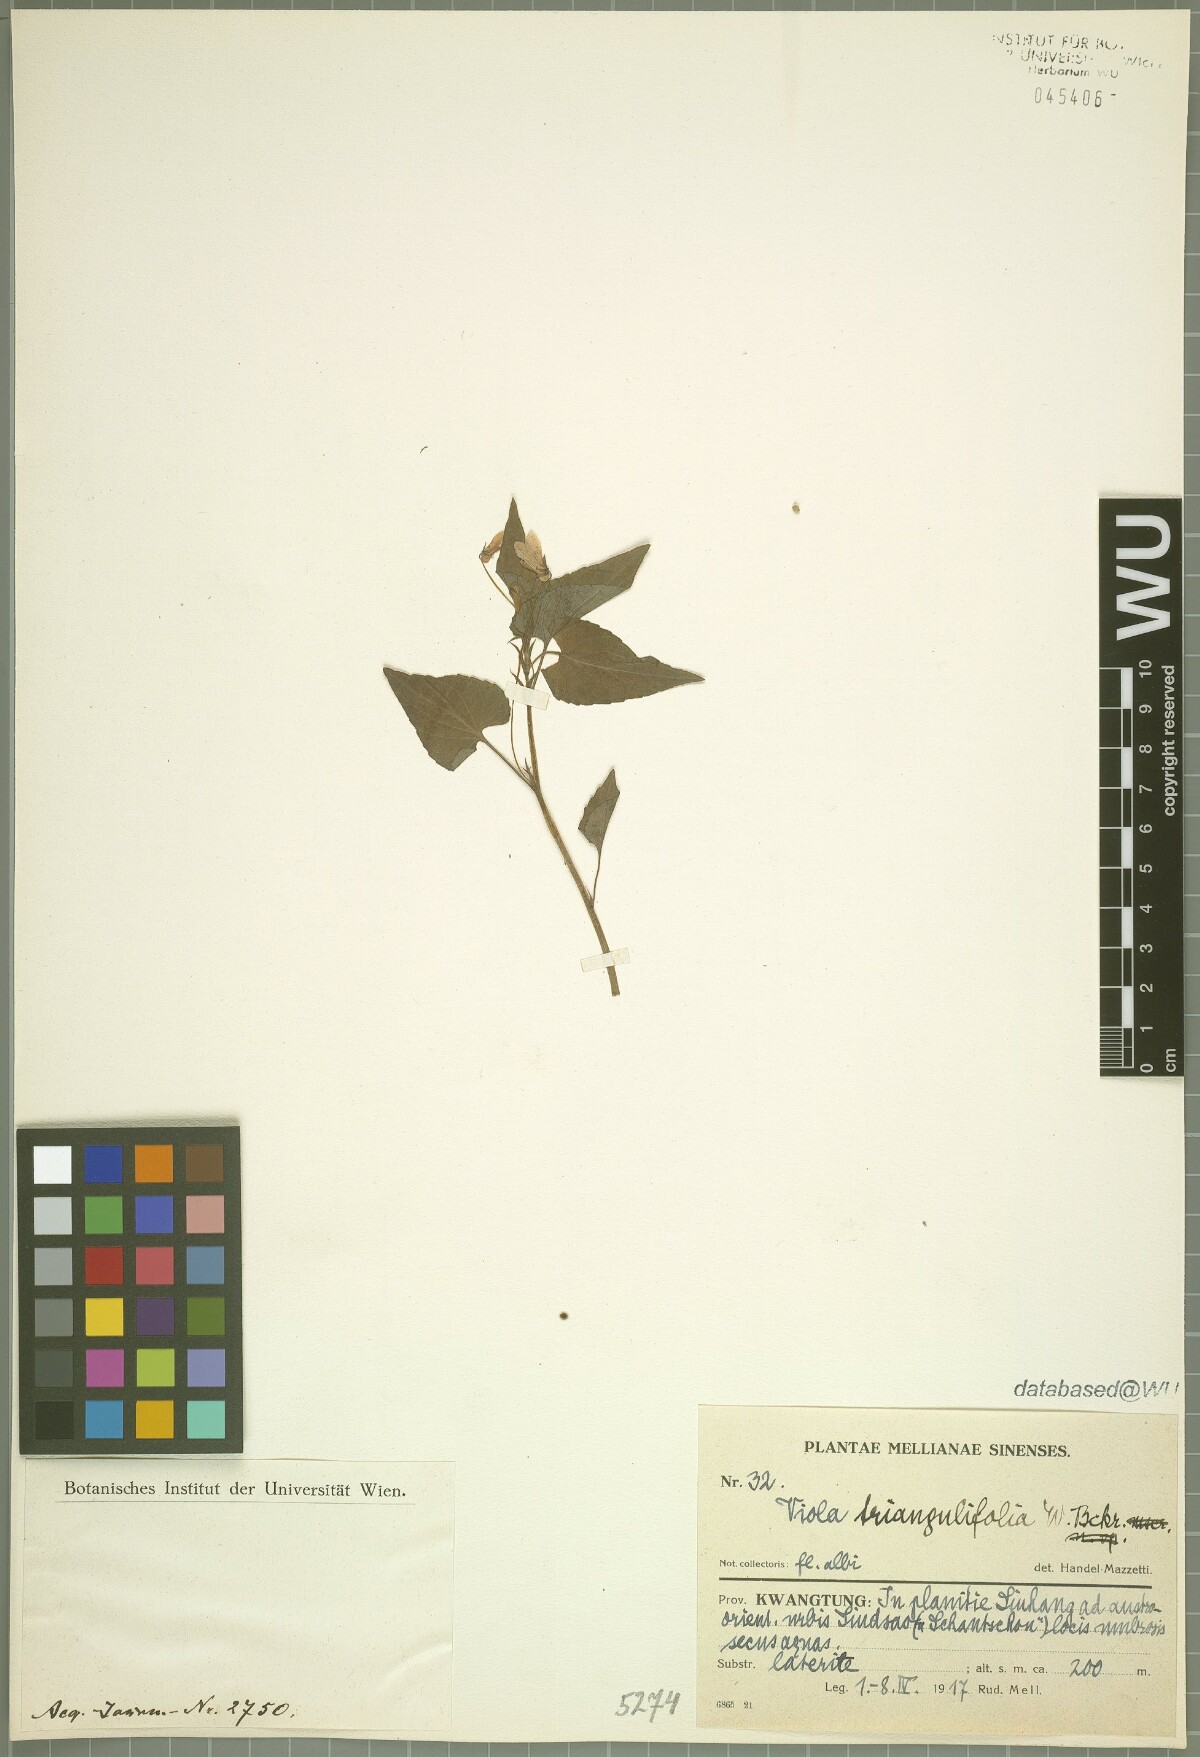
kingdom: Plantae
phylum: Tracheophyta
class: Magnoliopsida
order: Malpighiales
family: Violaceae
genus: Viola
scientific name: Viola triangulifolia
